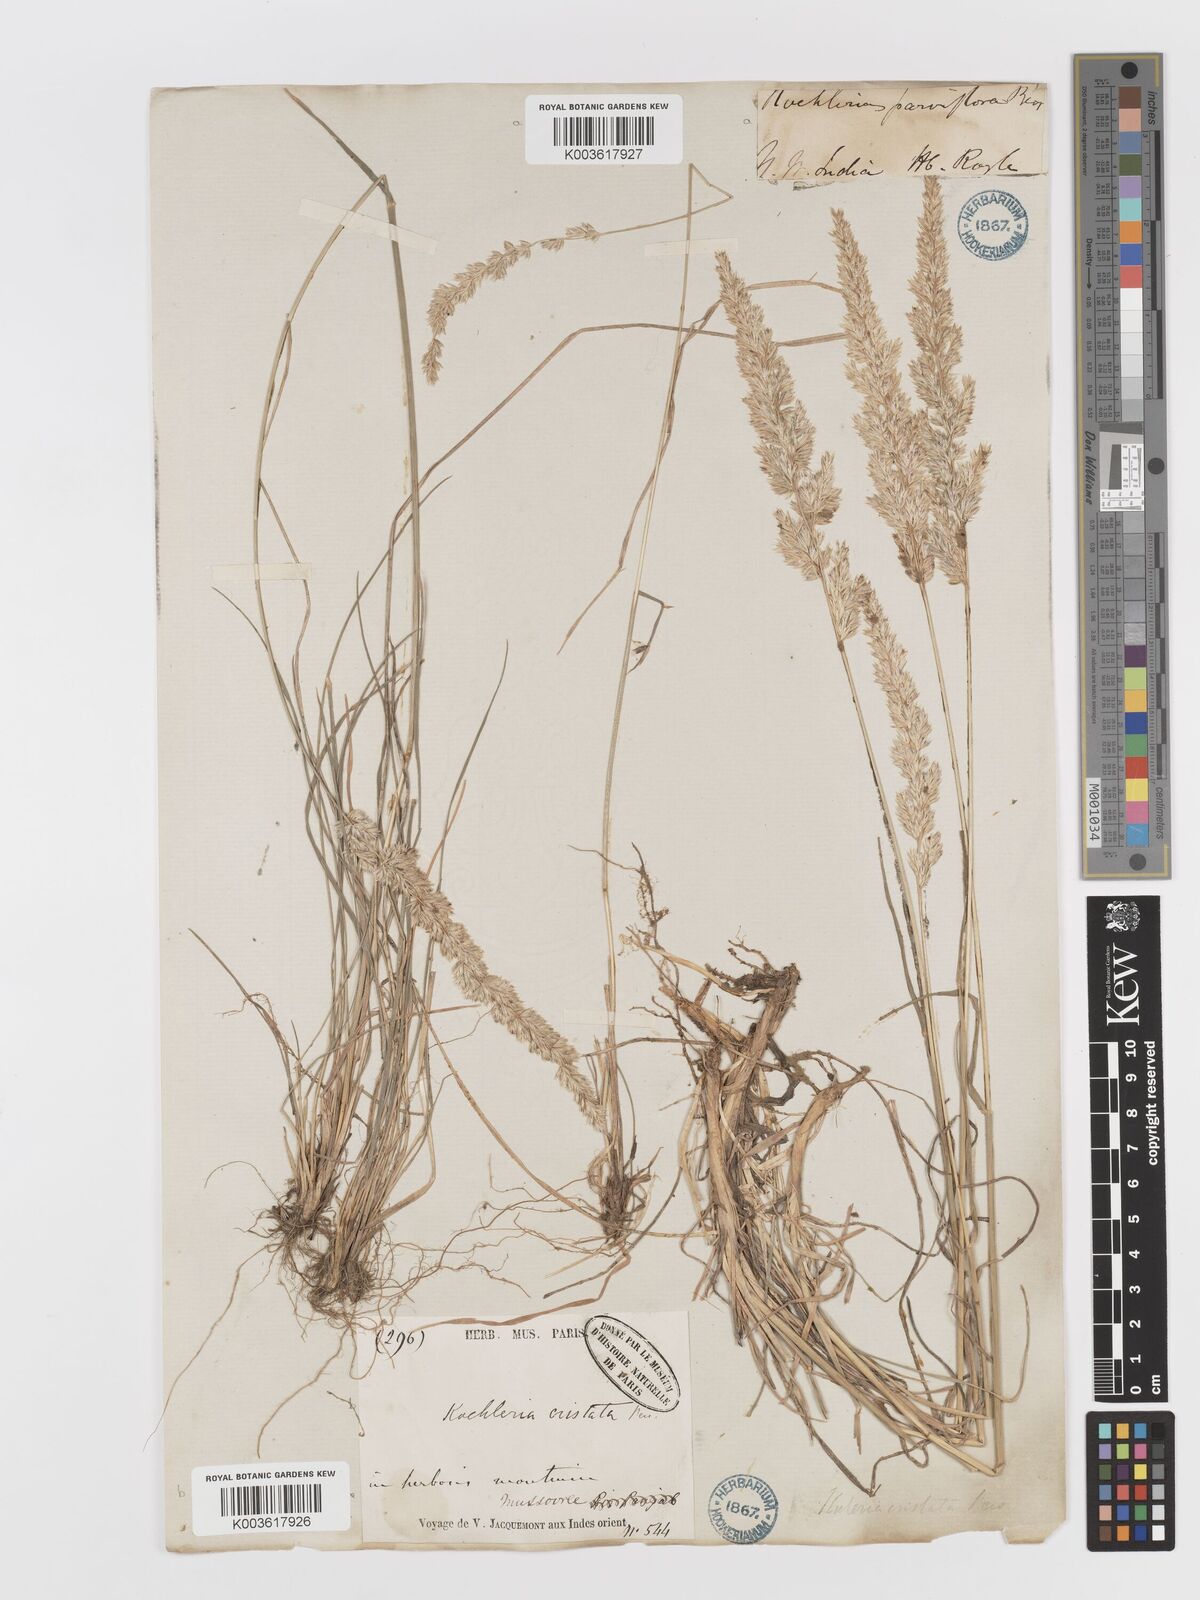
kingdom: Plantae
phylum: Tracheophyta
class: Liliopsida
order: Poales
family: Poaceae
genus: Koeleria
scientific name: Koeleria
